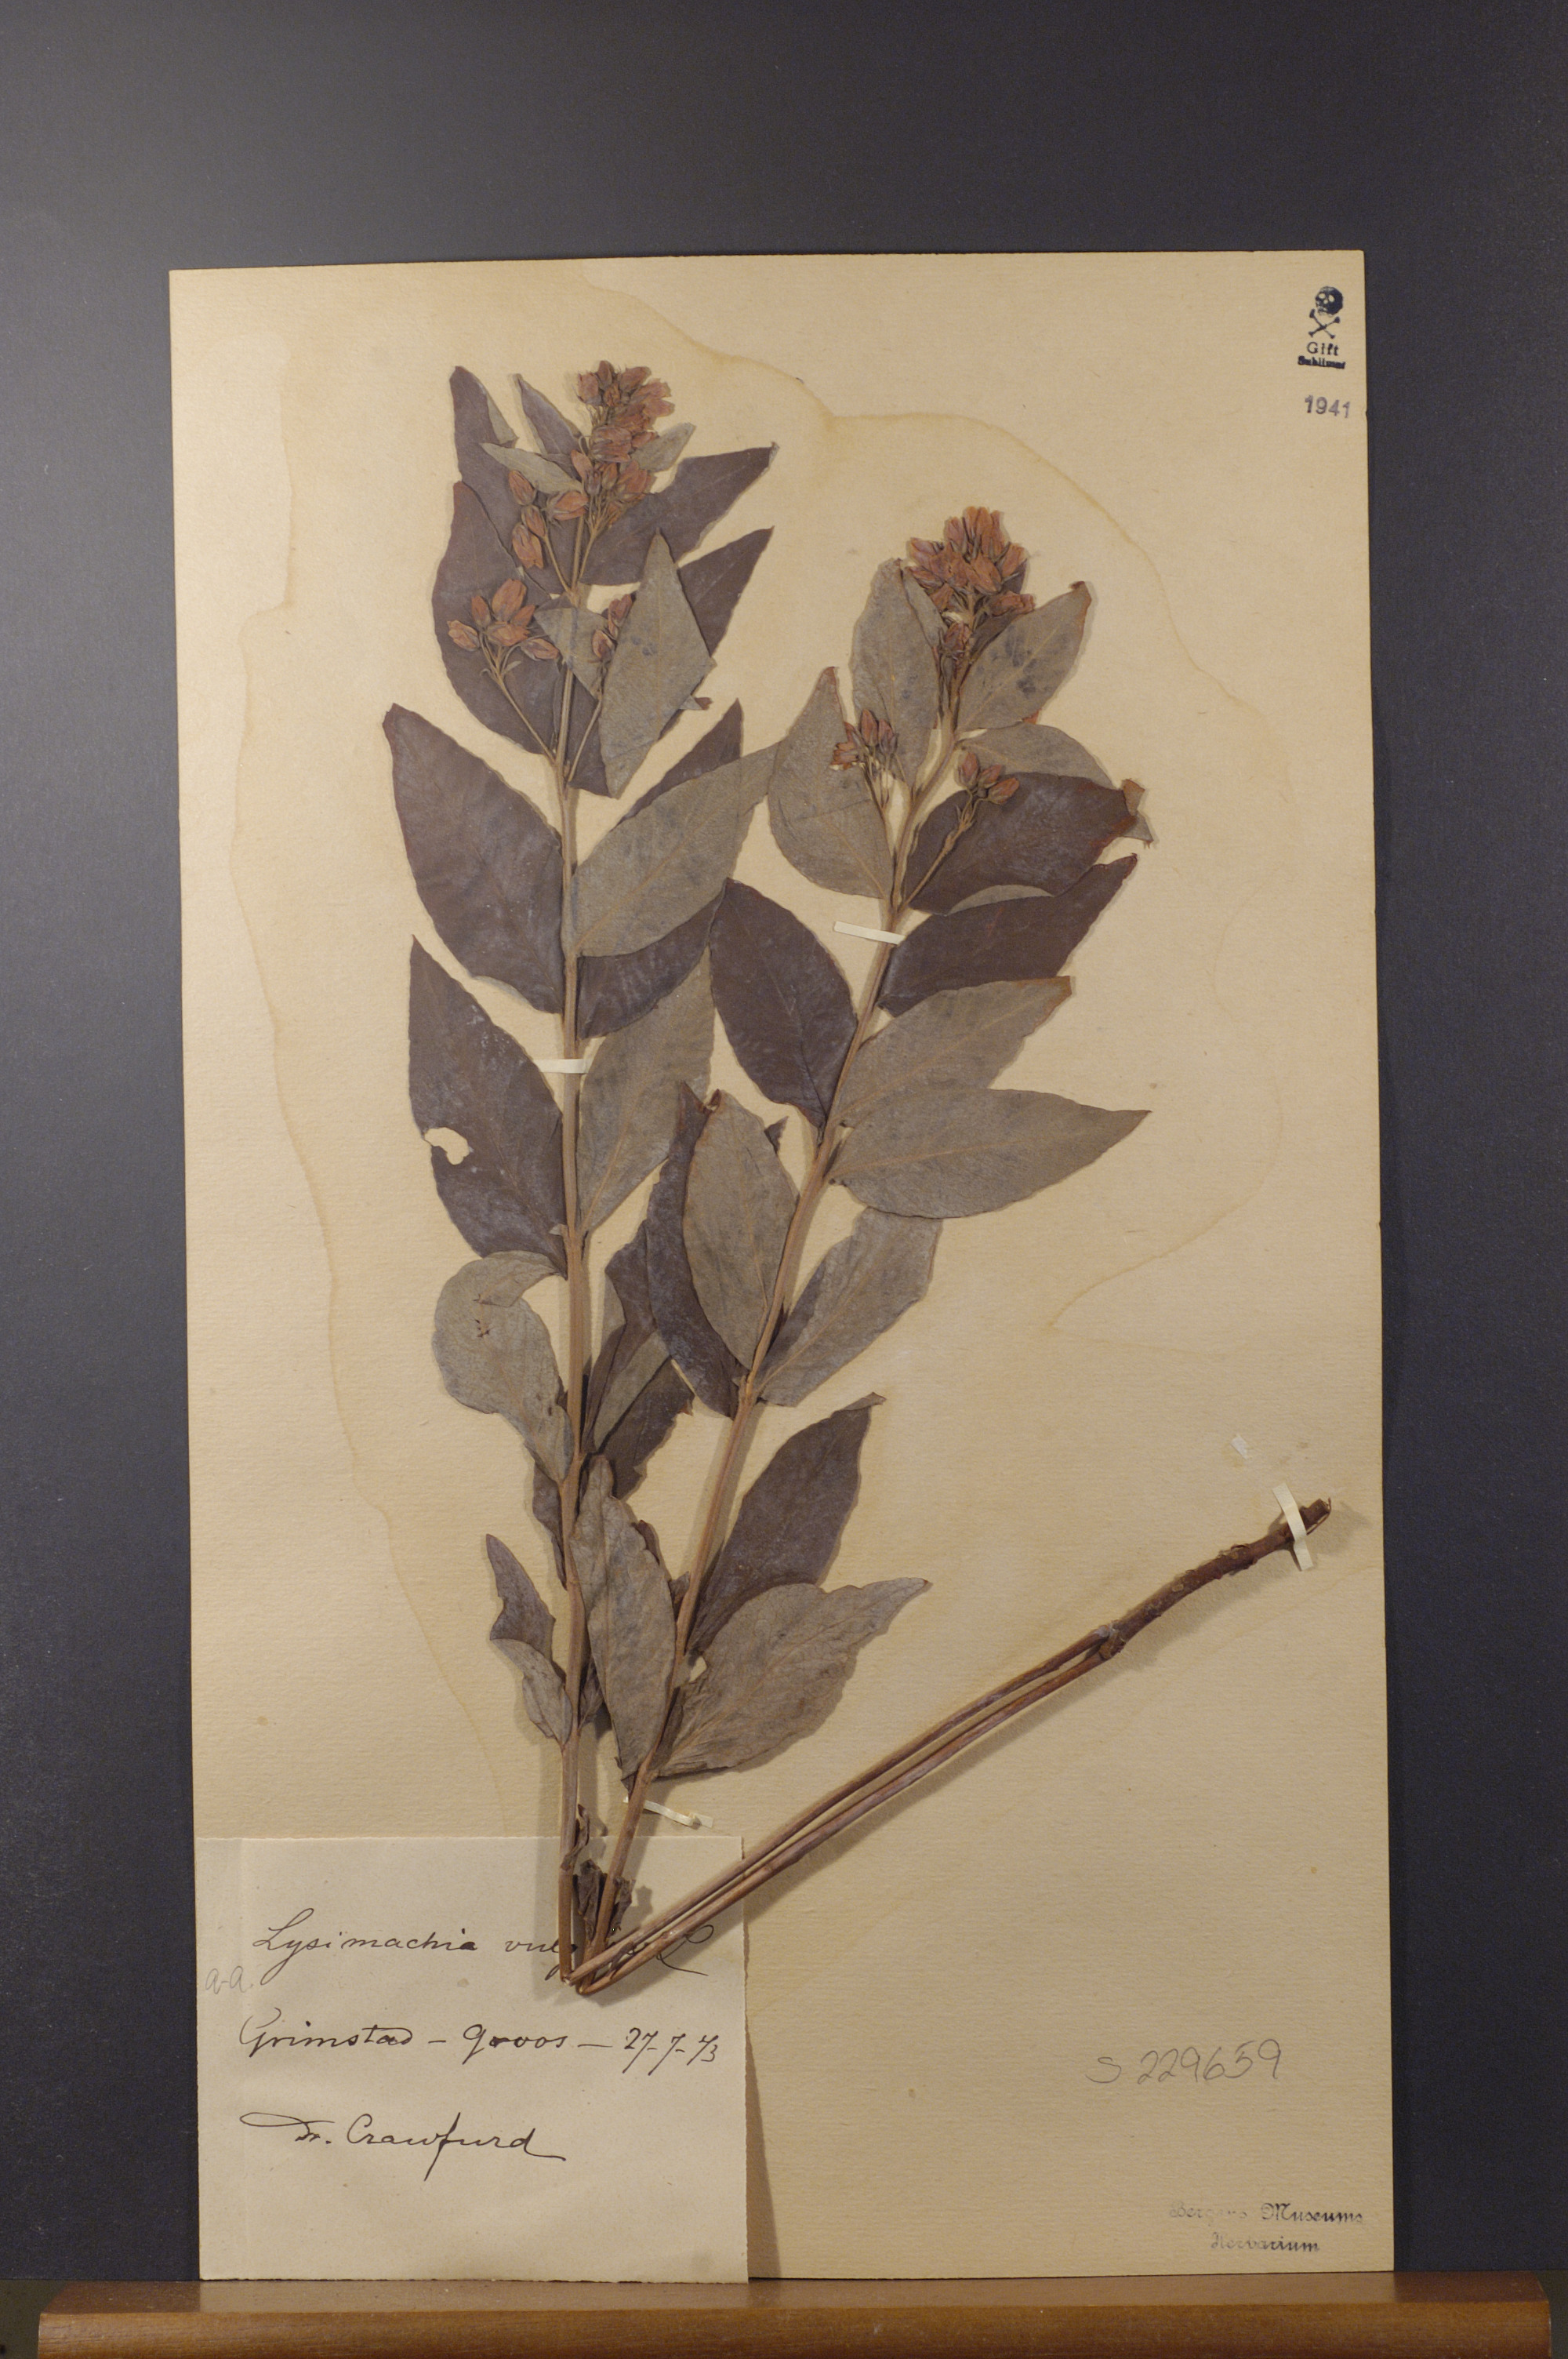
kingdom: Plantae
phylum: Tracheophyta
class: Magnoliopsida
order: Ericales
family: Primulaceae
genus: Lysimachia
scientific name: Lysimachia vulgaris
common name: Yellow loosestrife
